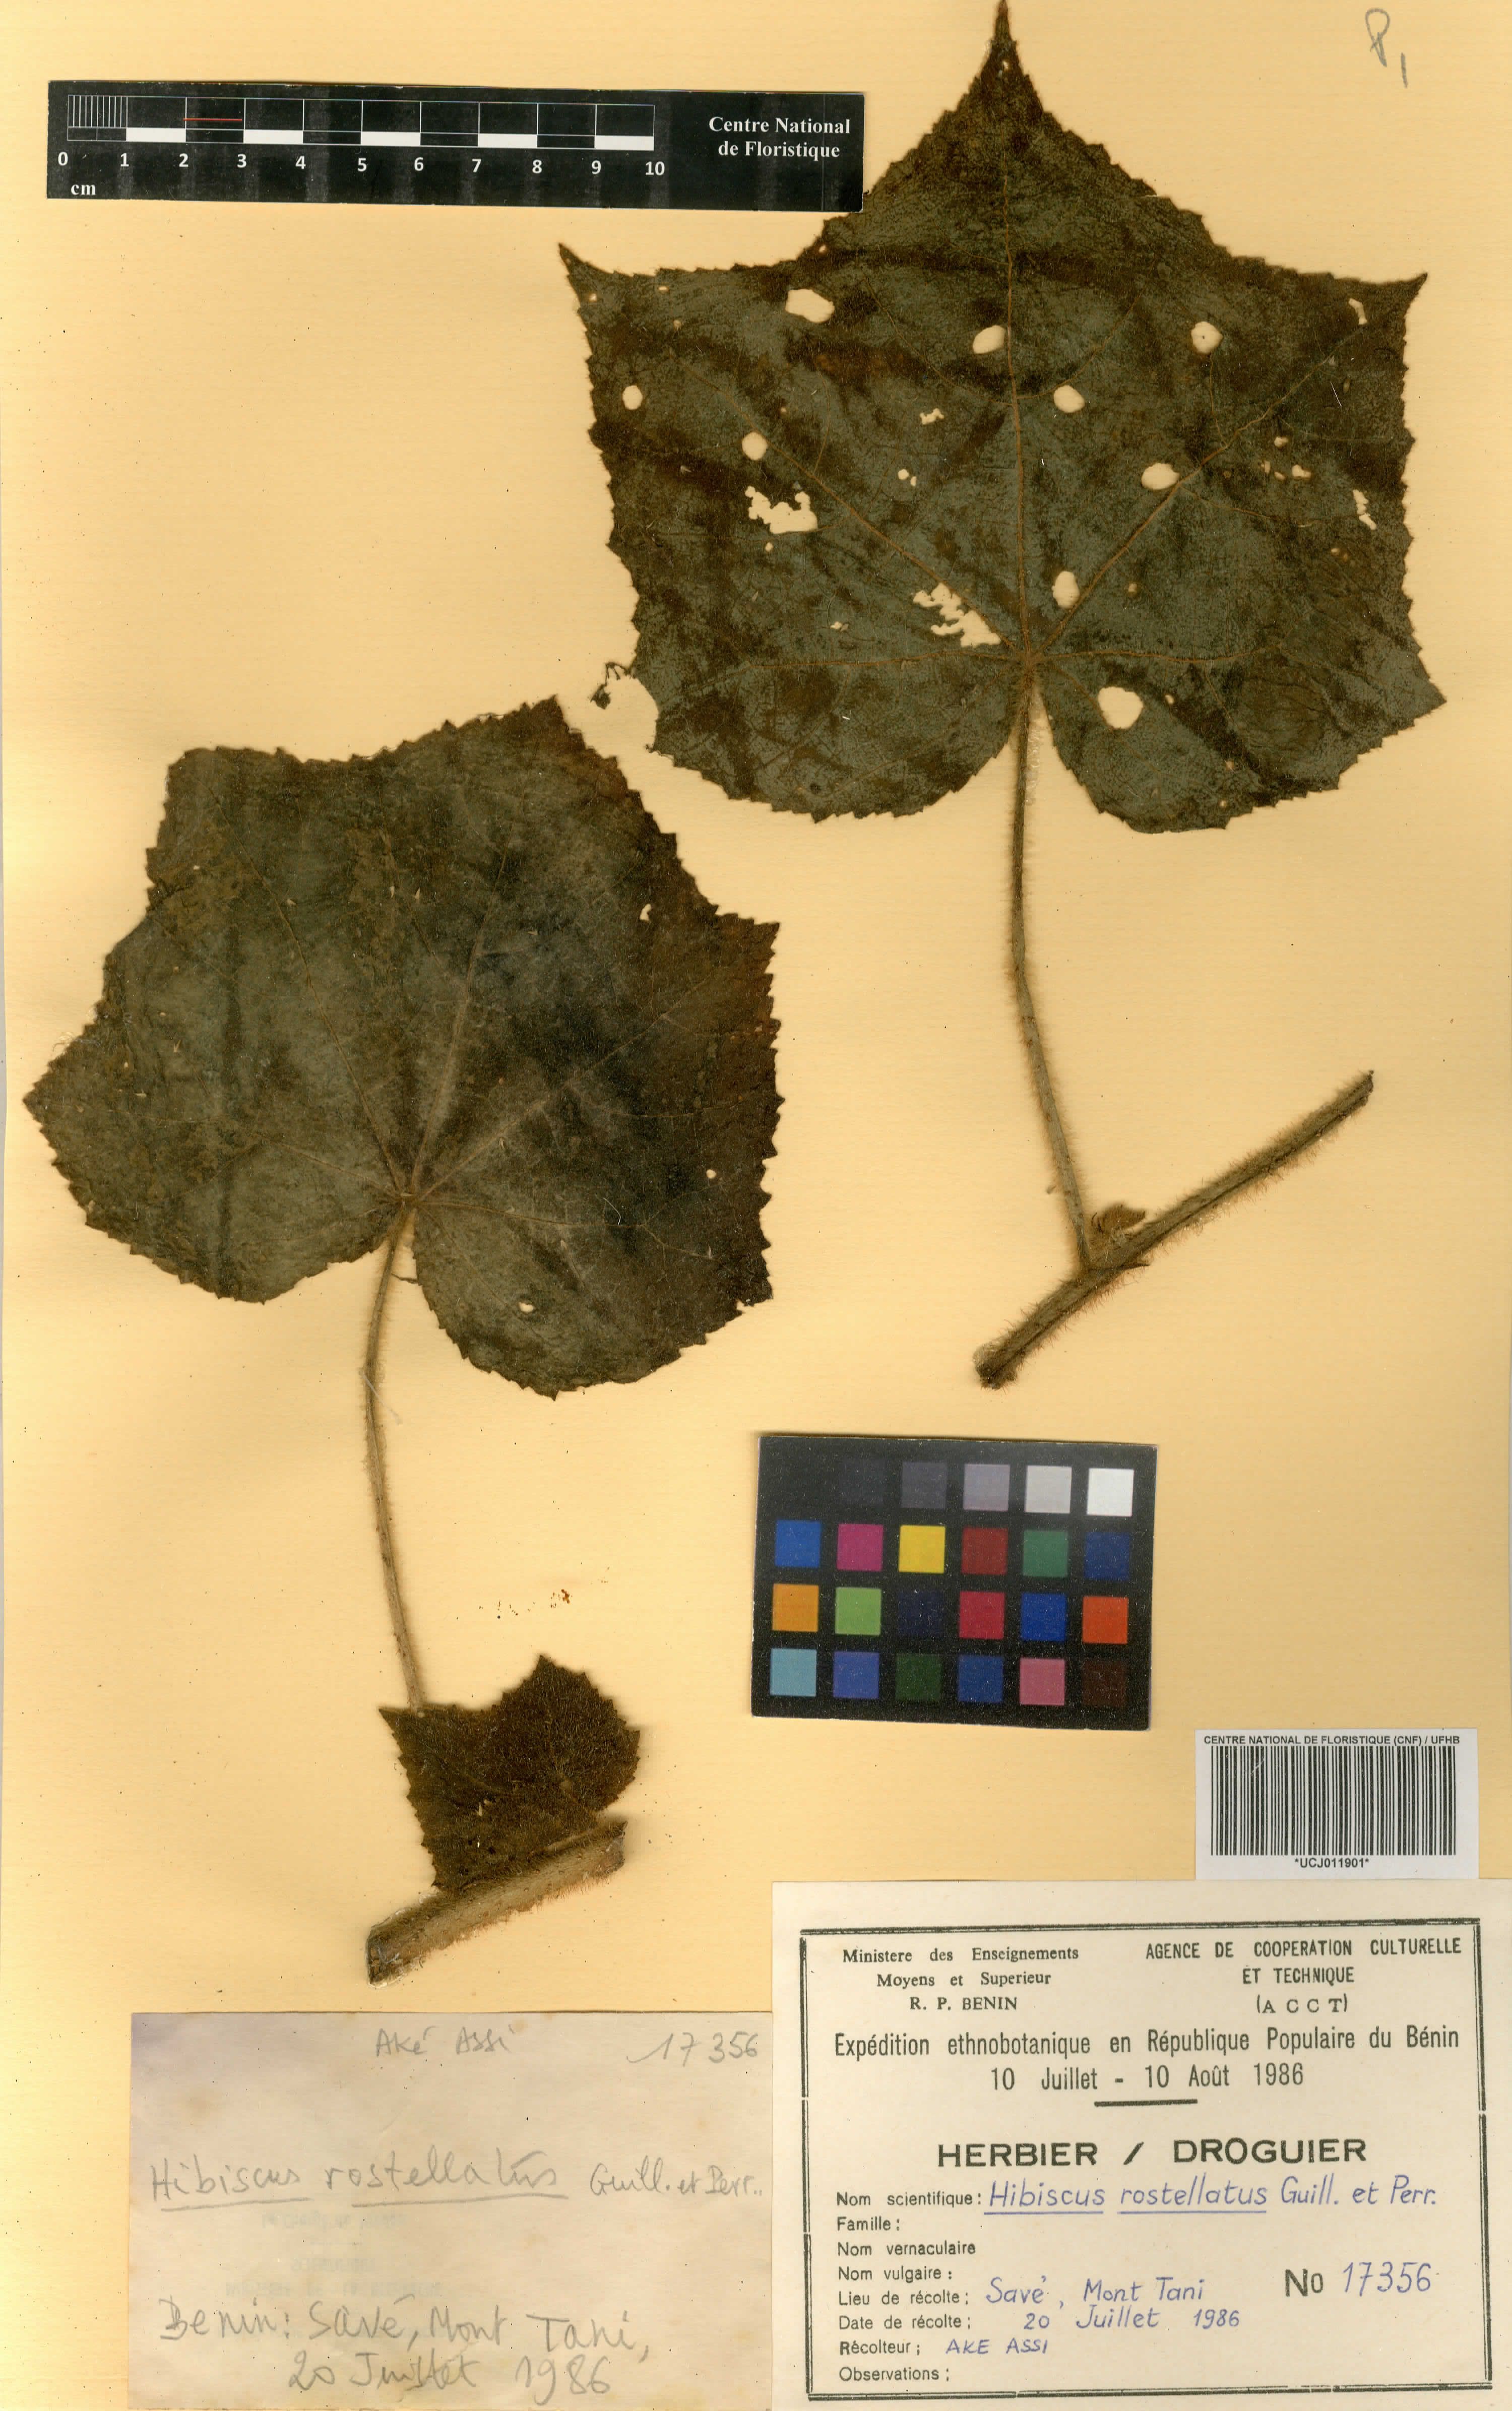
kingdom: Plantae
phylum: Tracheophyta
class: Magnoliopsida
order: Malvales
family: Malvaceae
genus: Hibiscus
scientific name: Hibiscus rostellatus
